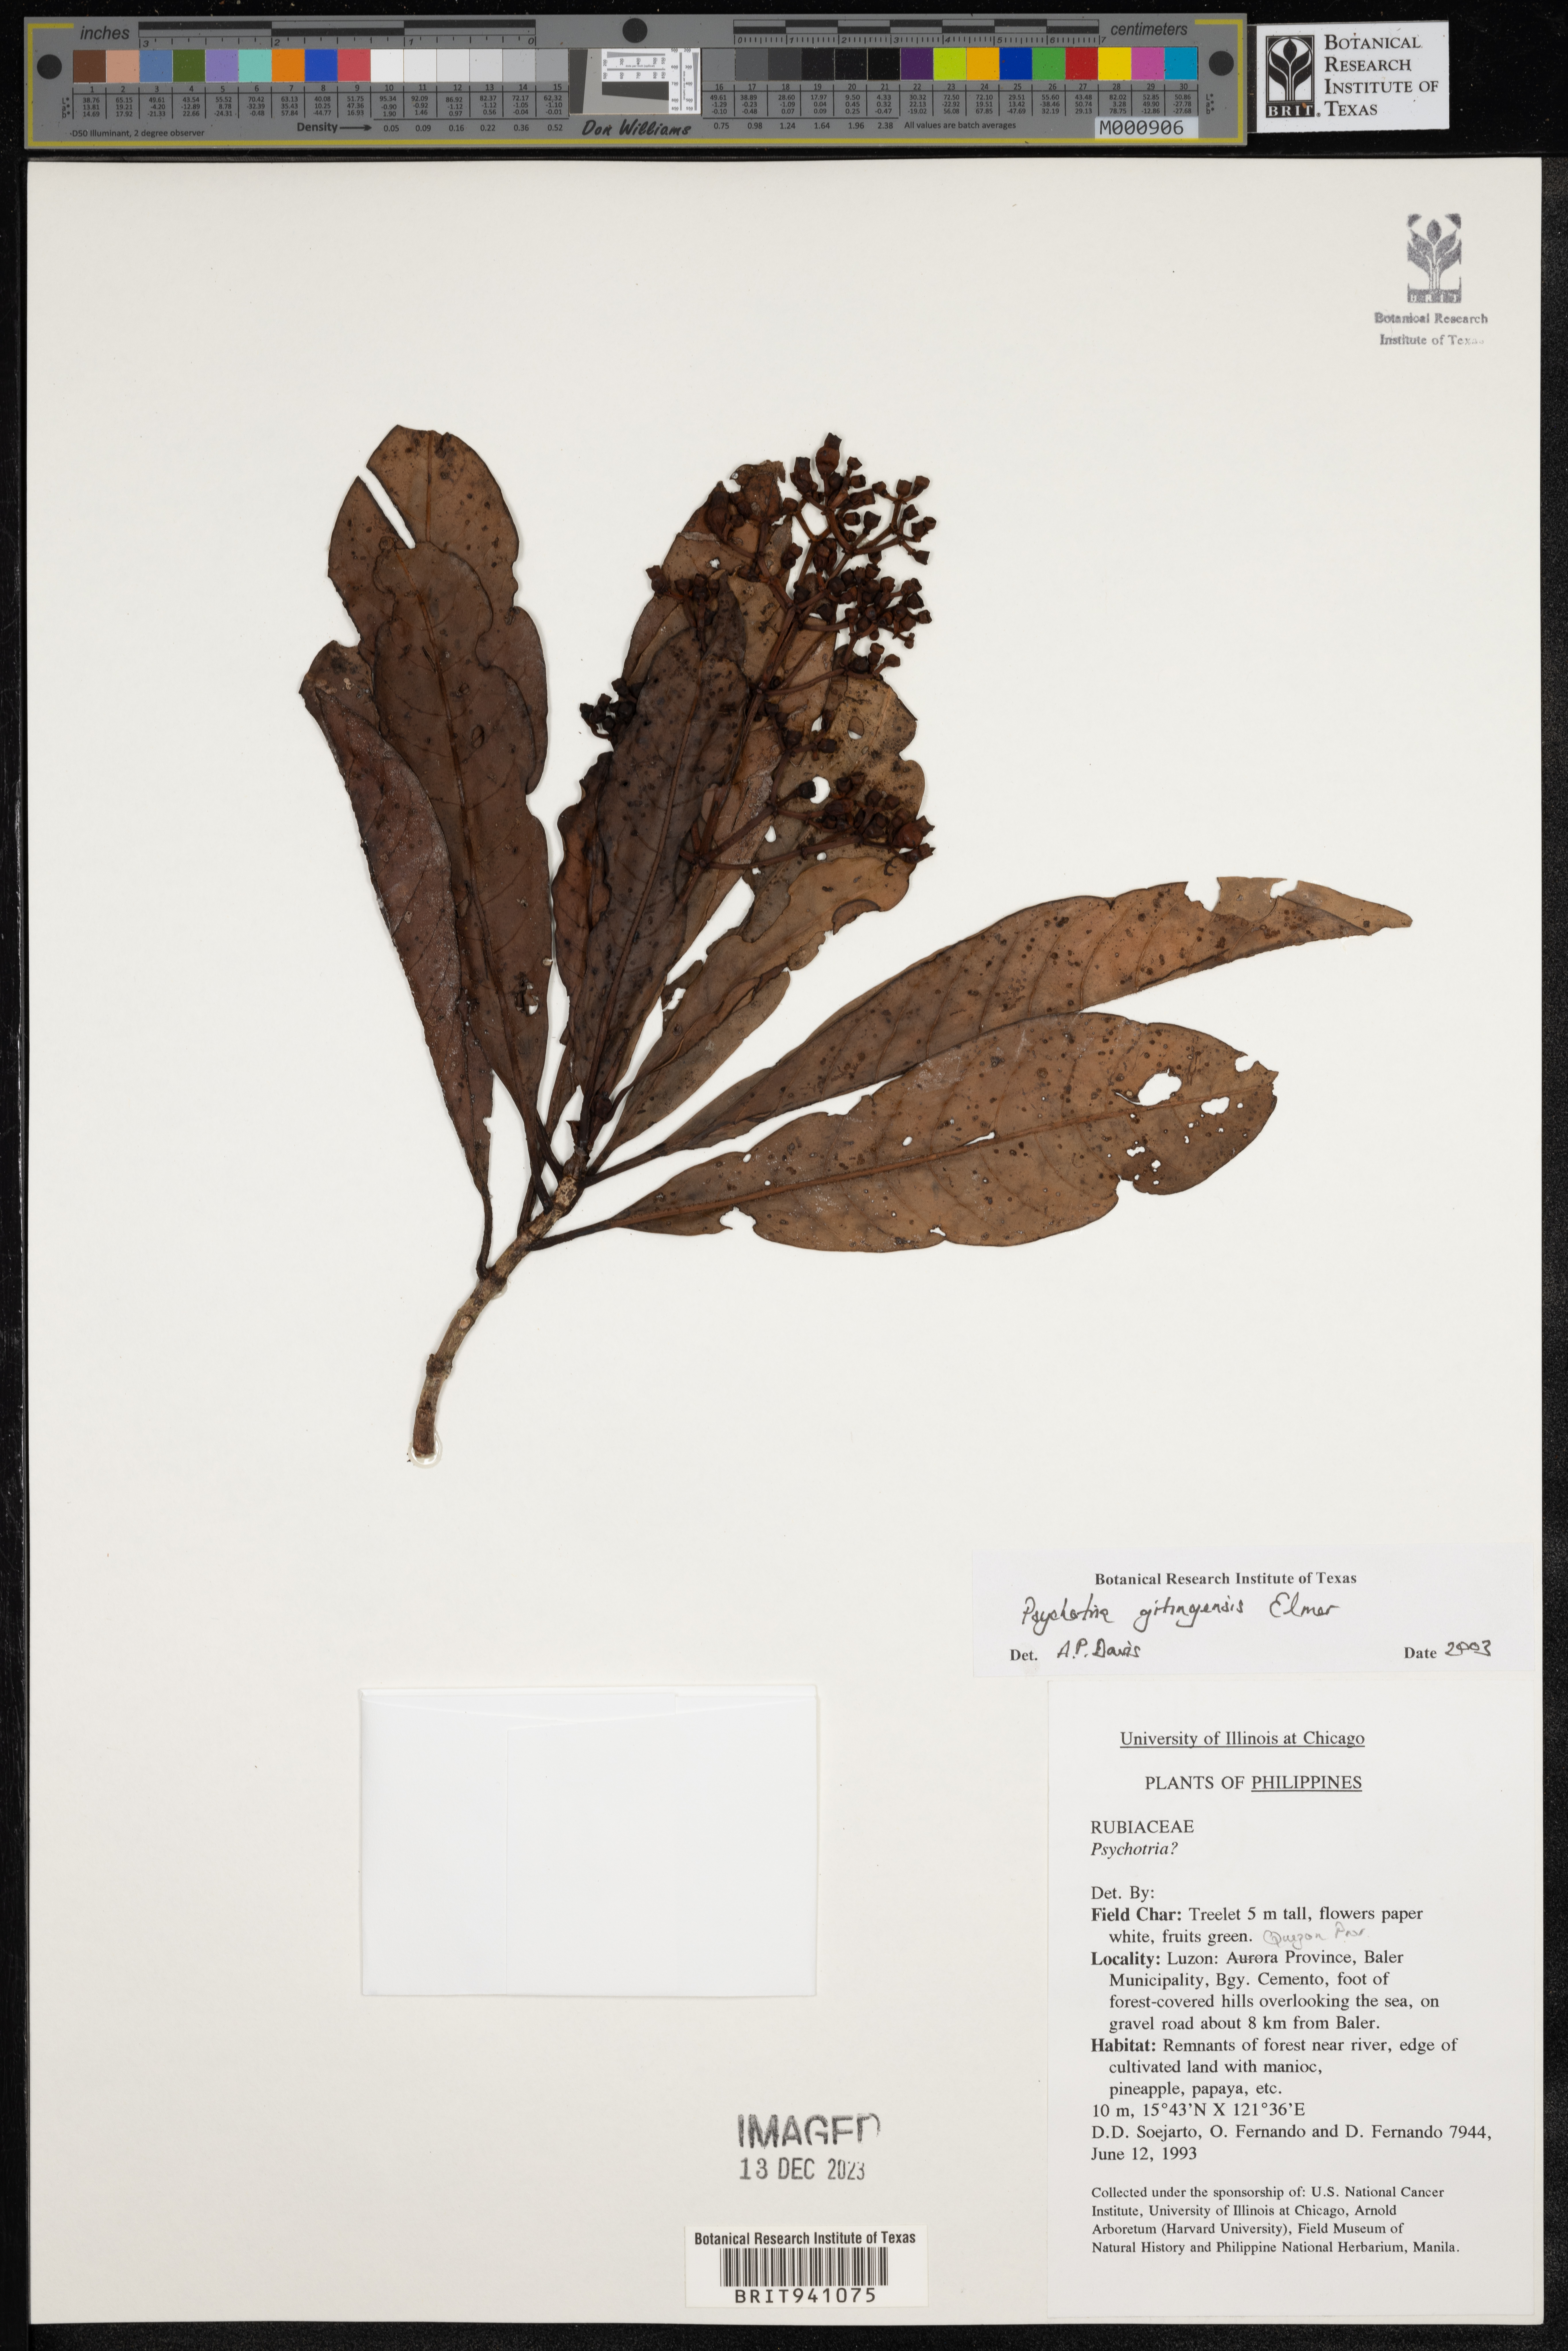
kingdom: Plantae
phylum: Tracheophyta
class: Magnoliopsida
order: Gentianales
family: Rubiaceae
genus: Psychotria
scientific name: Psychotria
